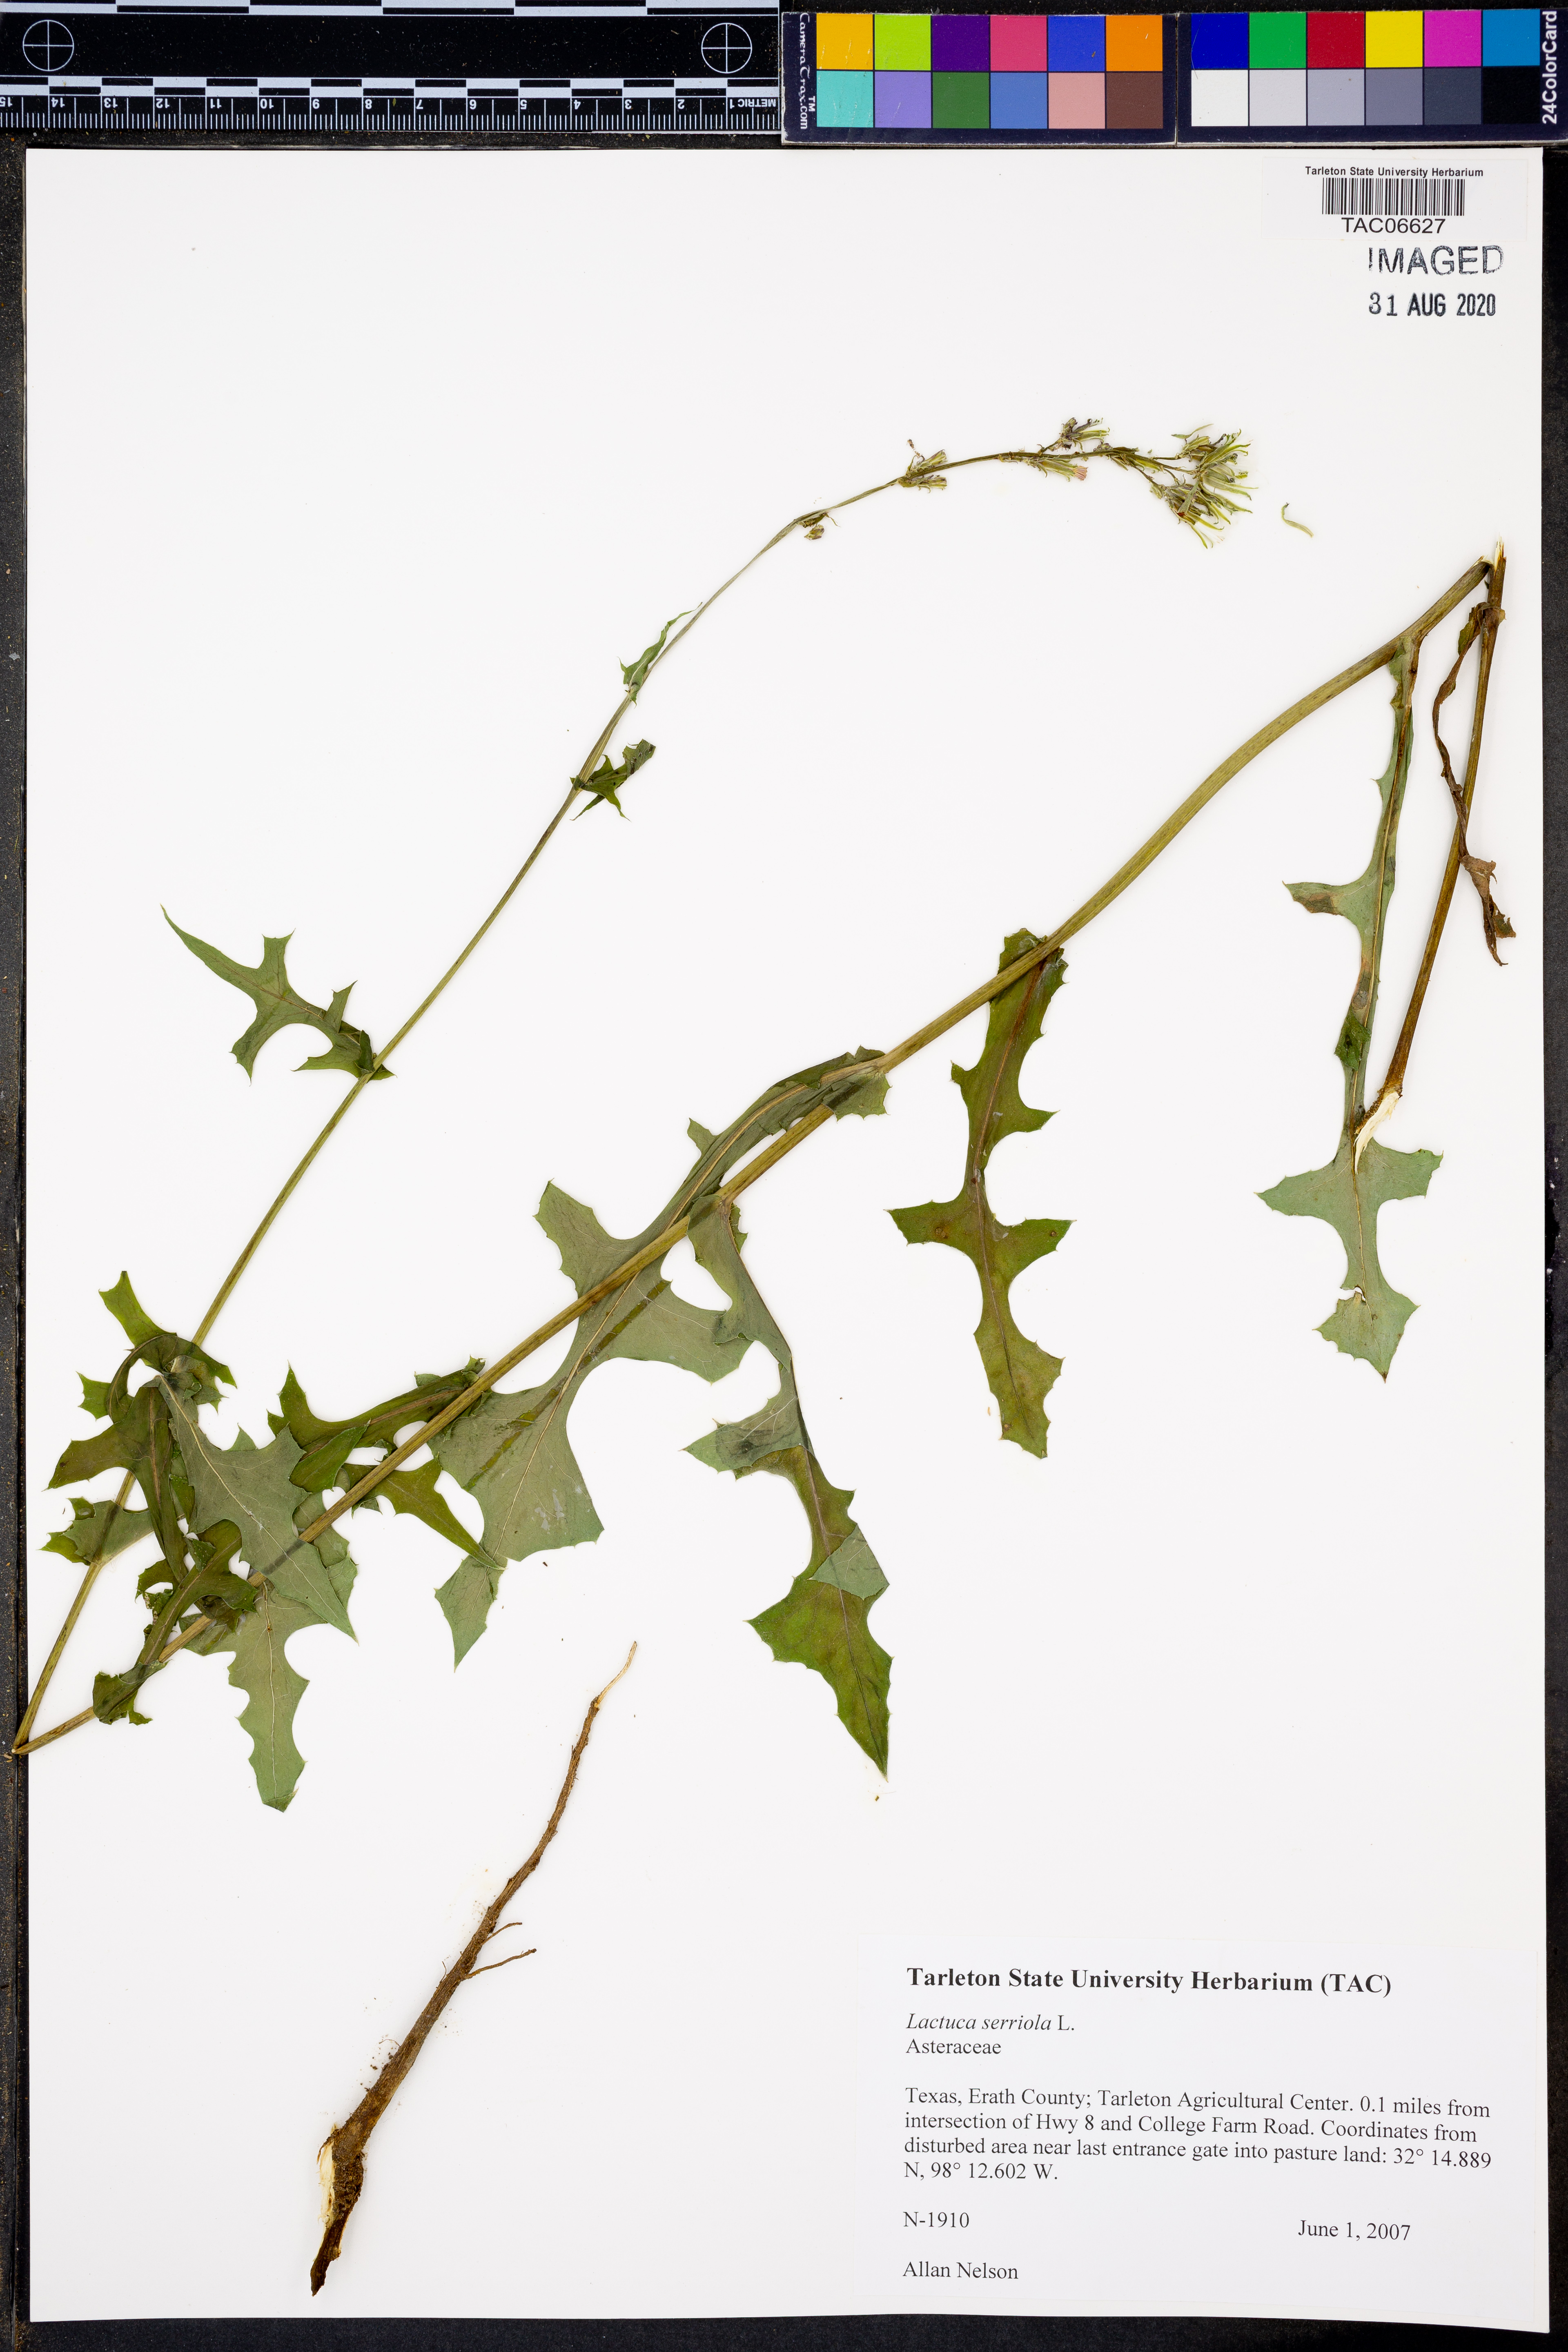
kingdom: Plantae
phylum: Tracheophyta
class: Magnoliopsida
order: Asterales
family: Asteraceae
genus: Lactuca
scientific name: Lactuca serriola
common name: Prickly lettuce
